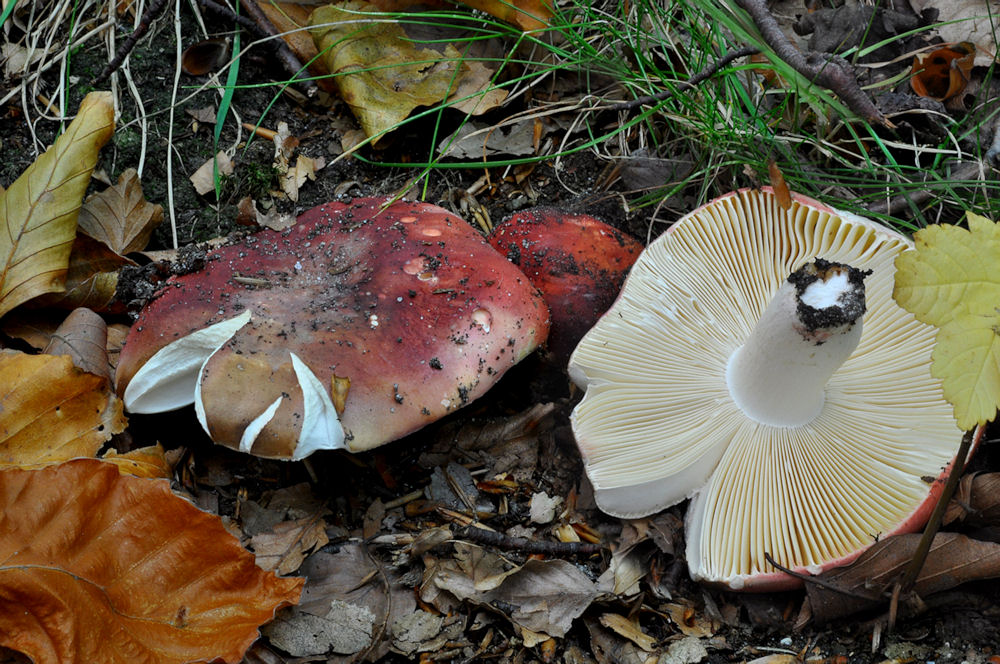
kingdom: Fungi
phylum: Basidiomycota
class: Agaricomycetes
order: Russulales
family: Russulaceae
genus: Russula
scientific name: Russula faginea
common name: bøge-skørhat
